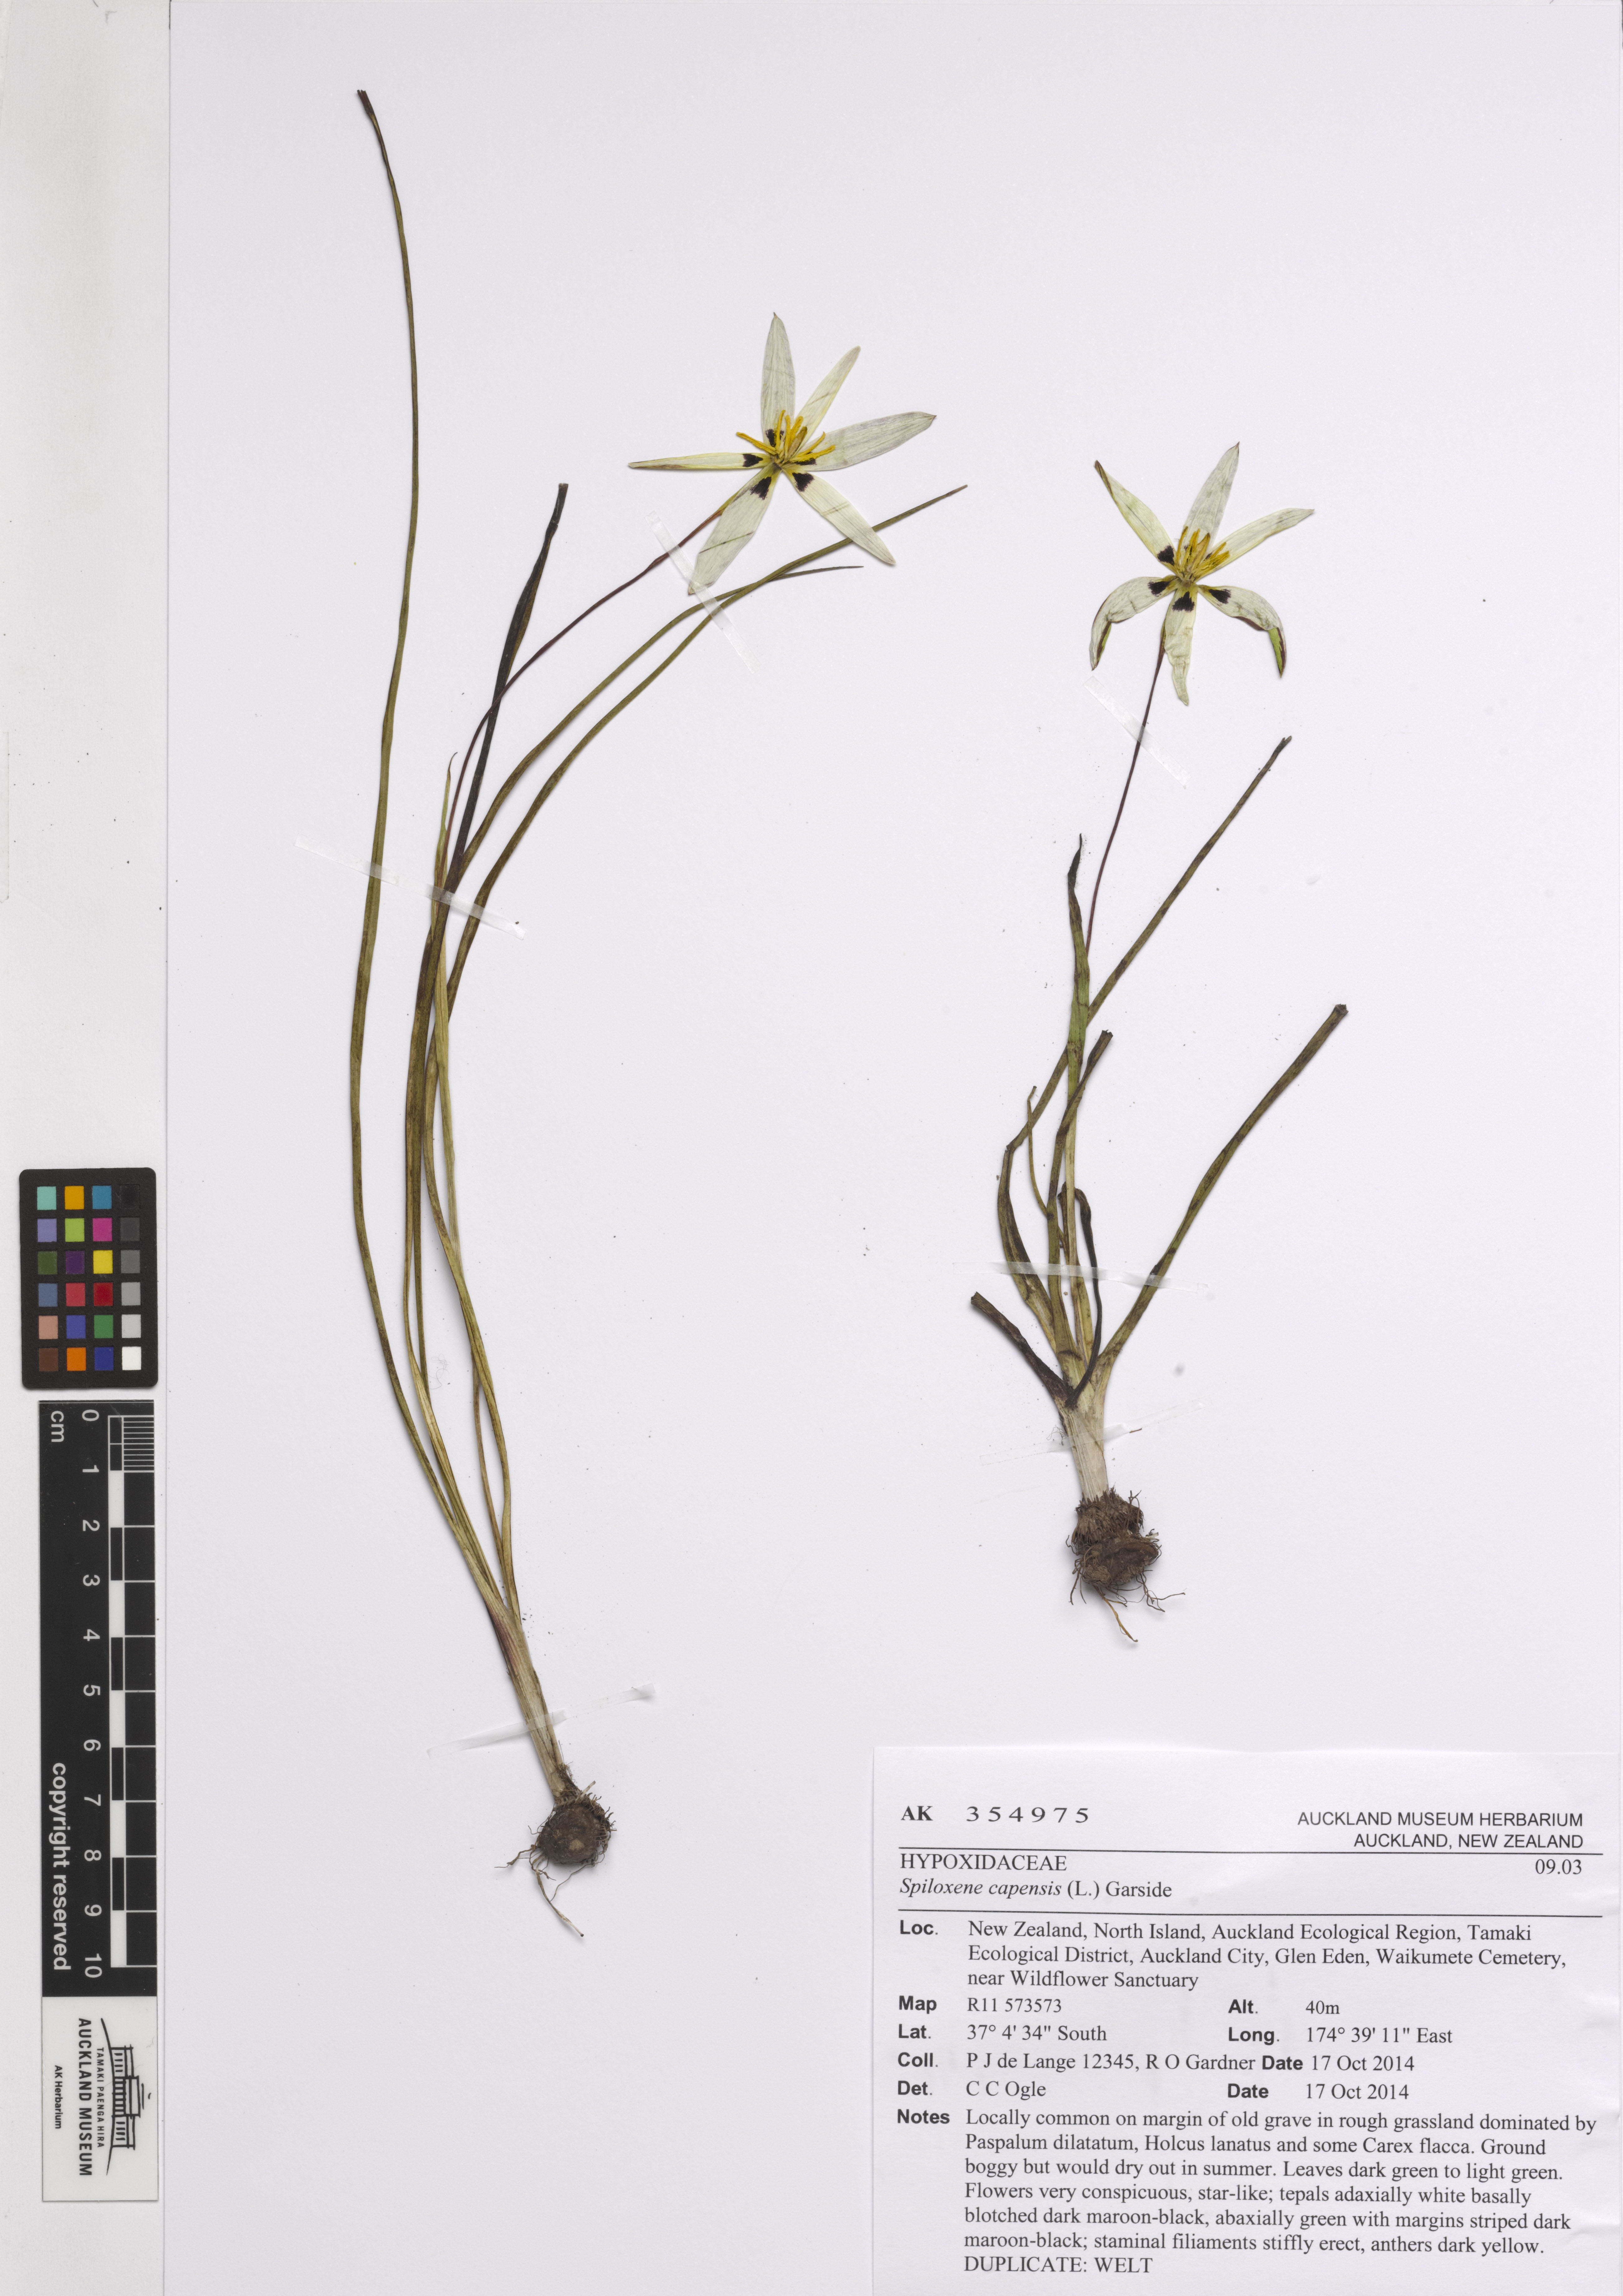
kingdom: Plantae
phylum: Tracheophyta
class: Liliopsida
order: Asparagales
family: Hypoxidaceae
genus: Pauridia
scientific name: Pauridia capensis
